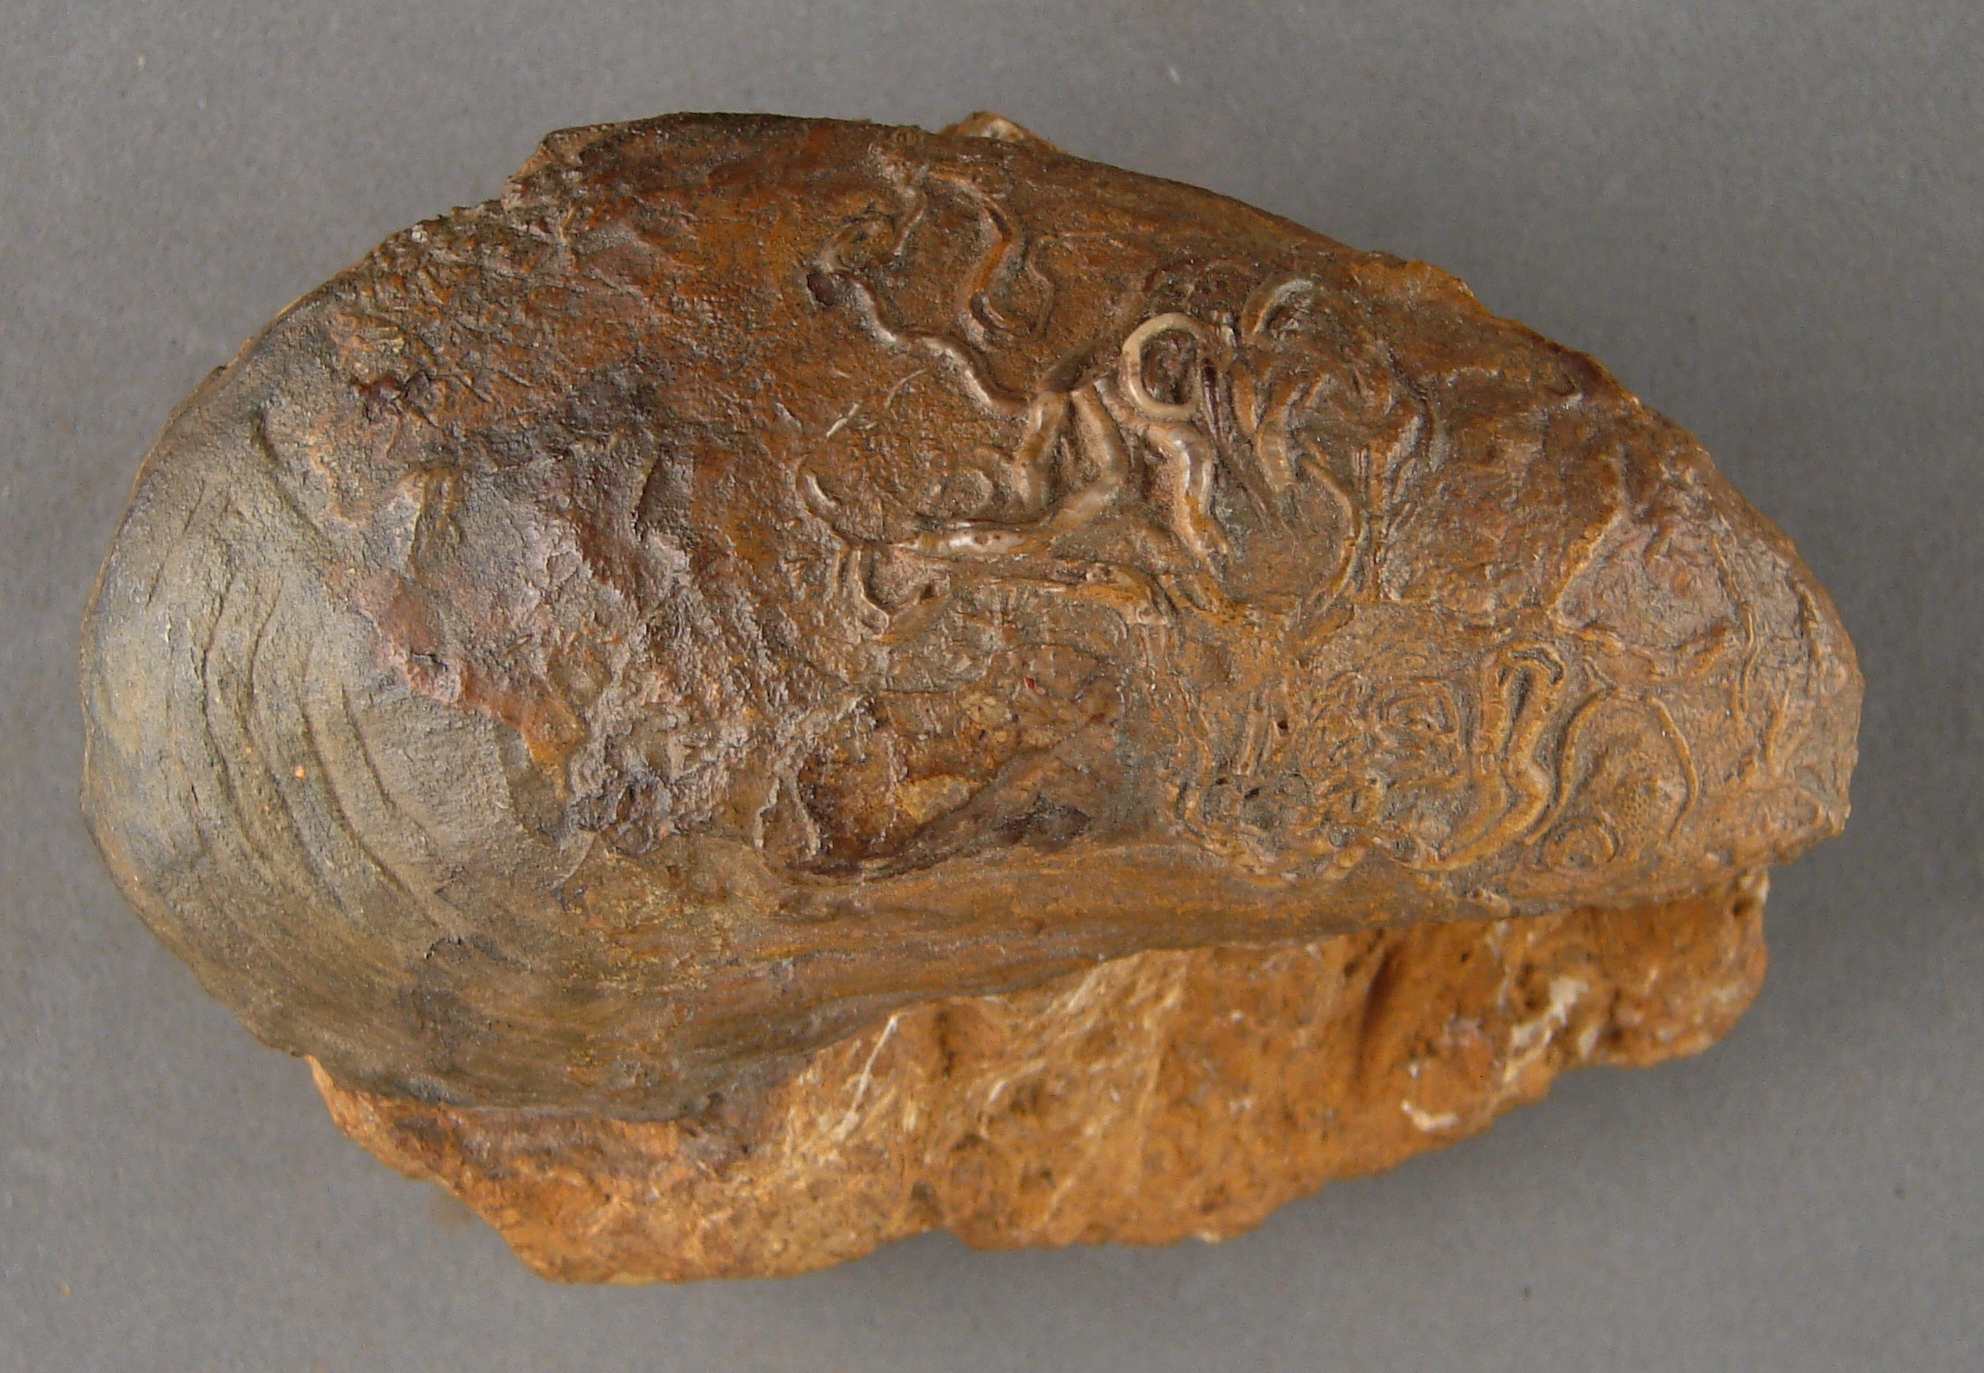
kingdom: Animalia
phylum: Mollusca
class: Bivalvia
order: Mytilida
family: Mytilidae
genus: Modiolus
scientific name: Modiolus
